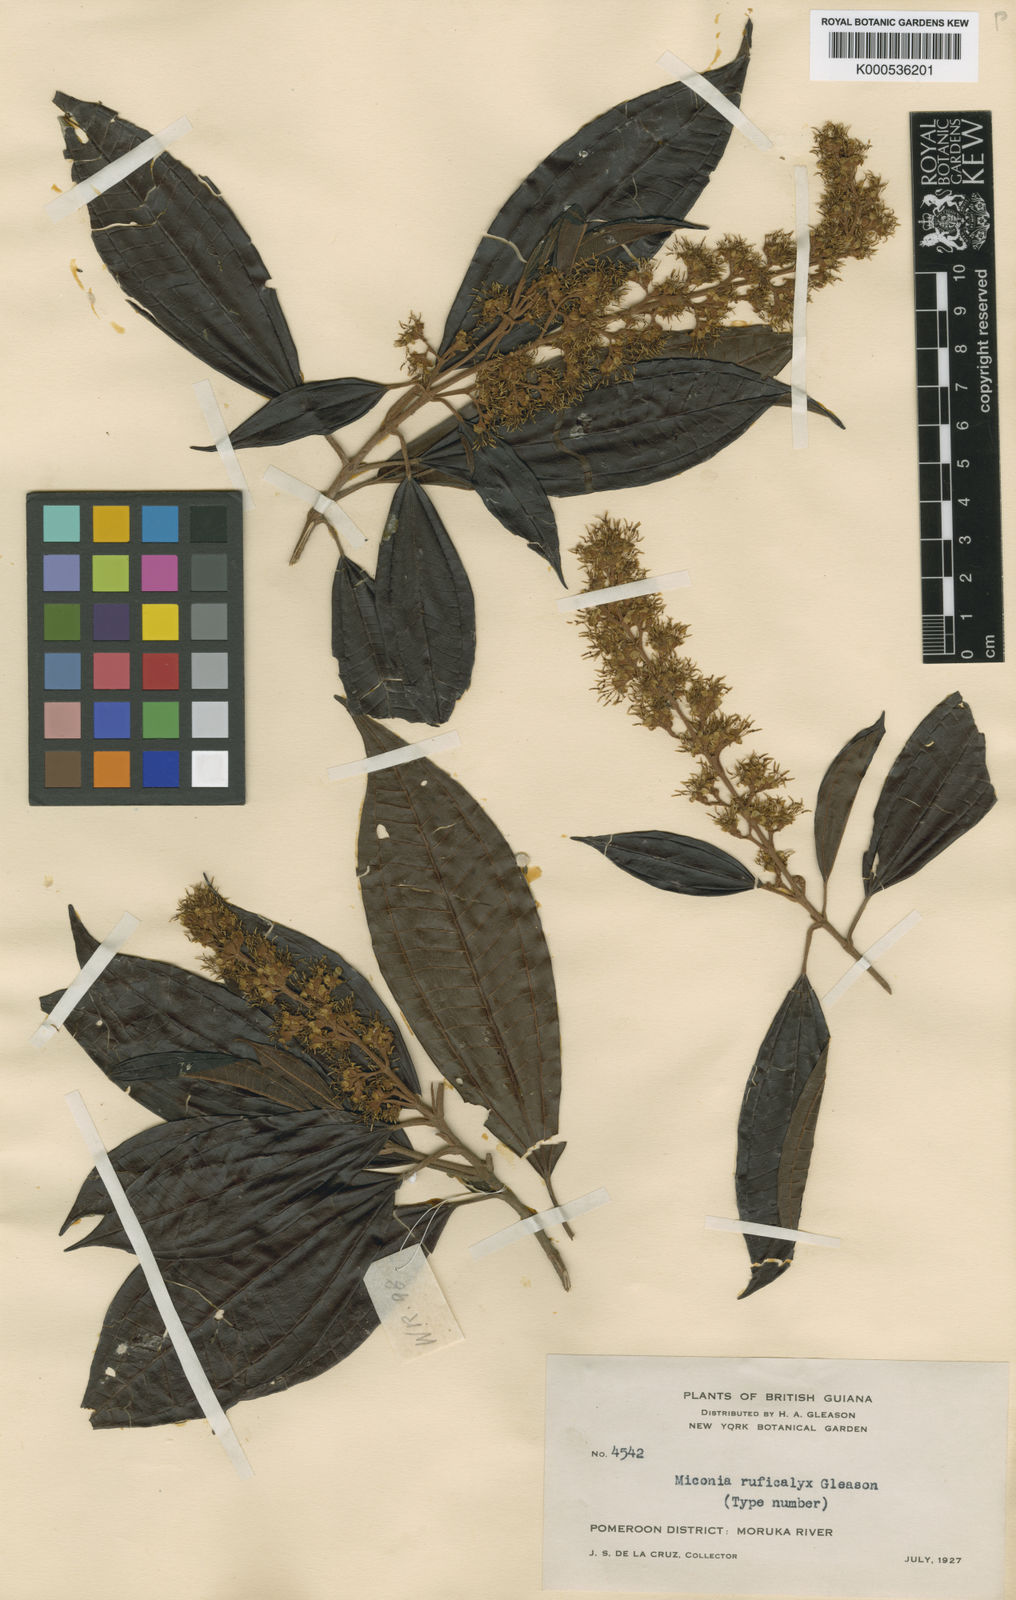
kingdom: Plantae
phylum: Tracheophyta
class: Magnoliopsida
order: Myrtales
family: Melastomataceae
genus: Miconia
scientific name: Miconia ruficalyx
